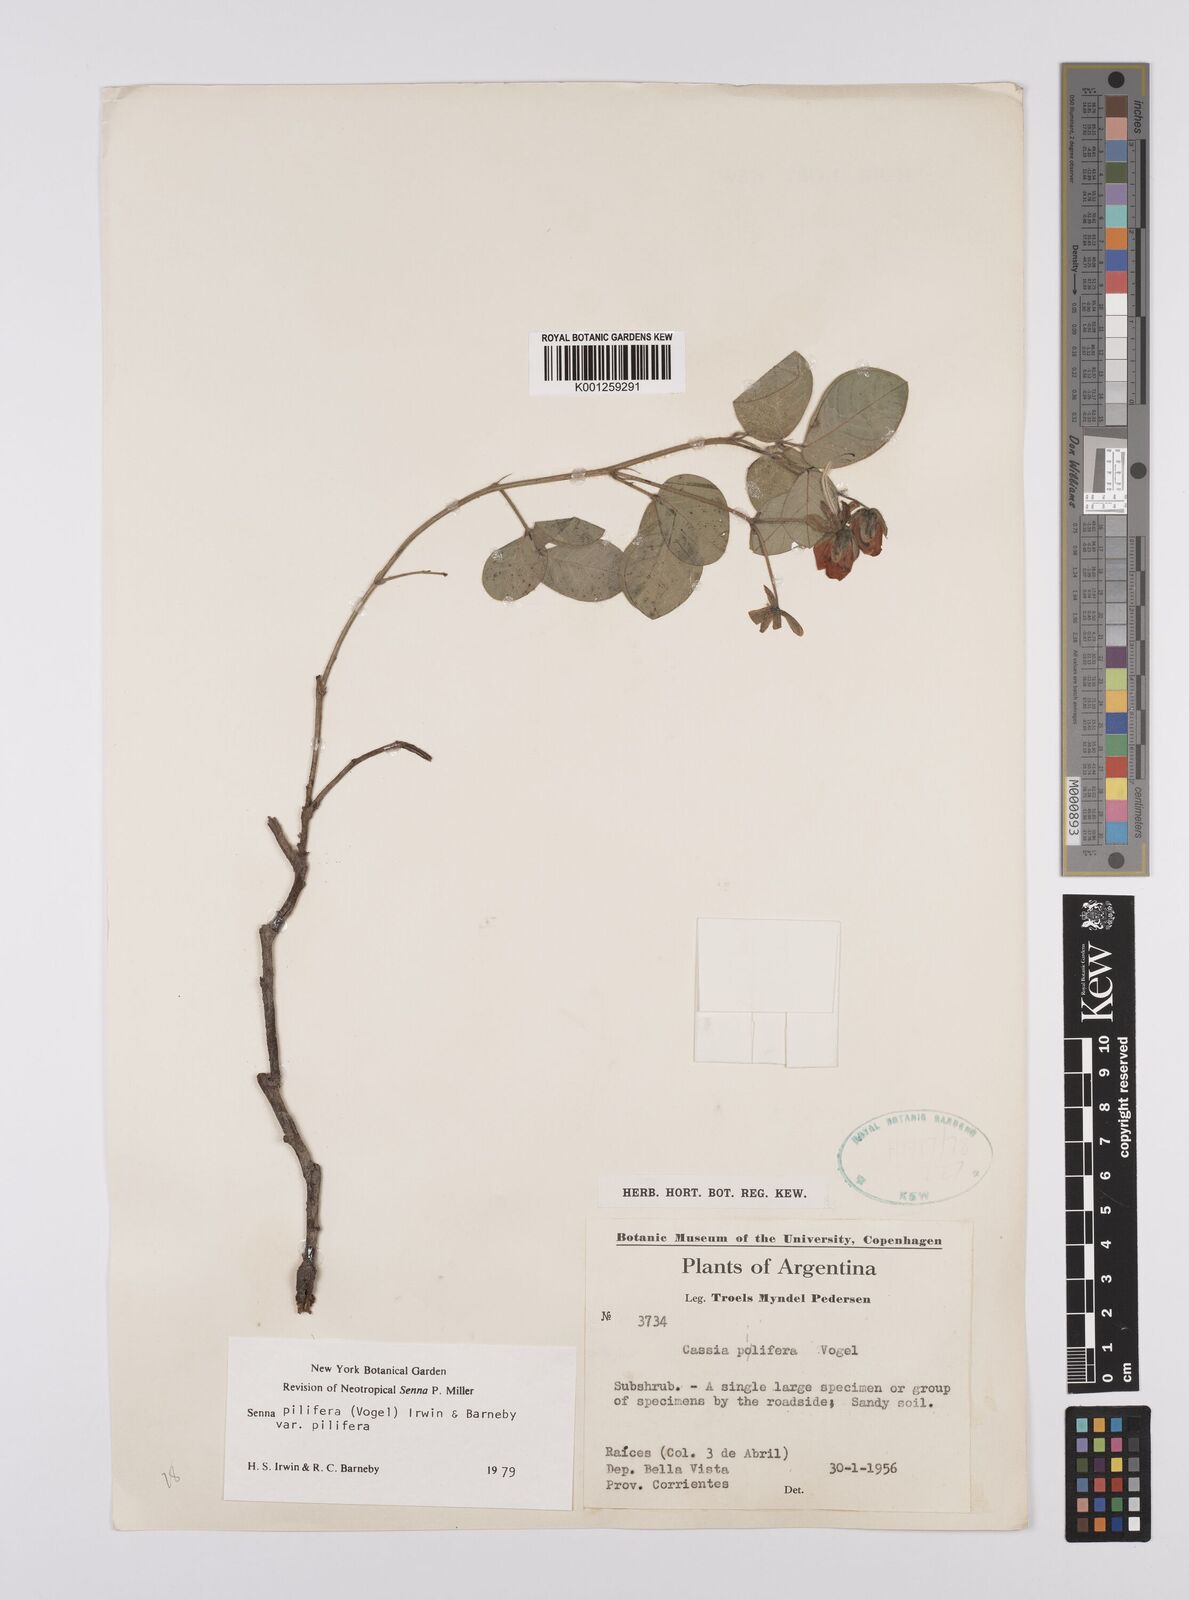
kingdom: Plantae
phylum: Tracheophyta
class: Magnoliopsida
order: Fabales
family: Fabaceae
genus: Senna
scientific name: Senna pilifera
